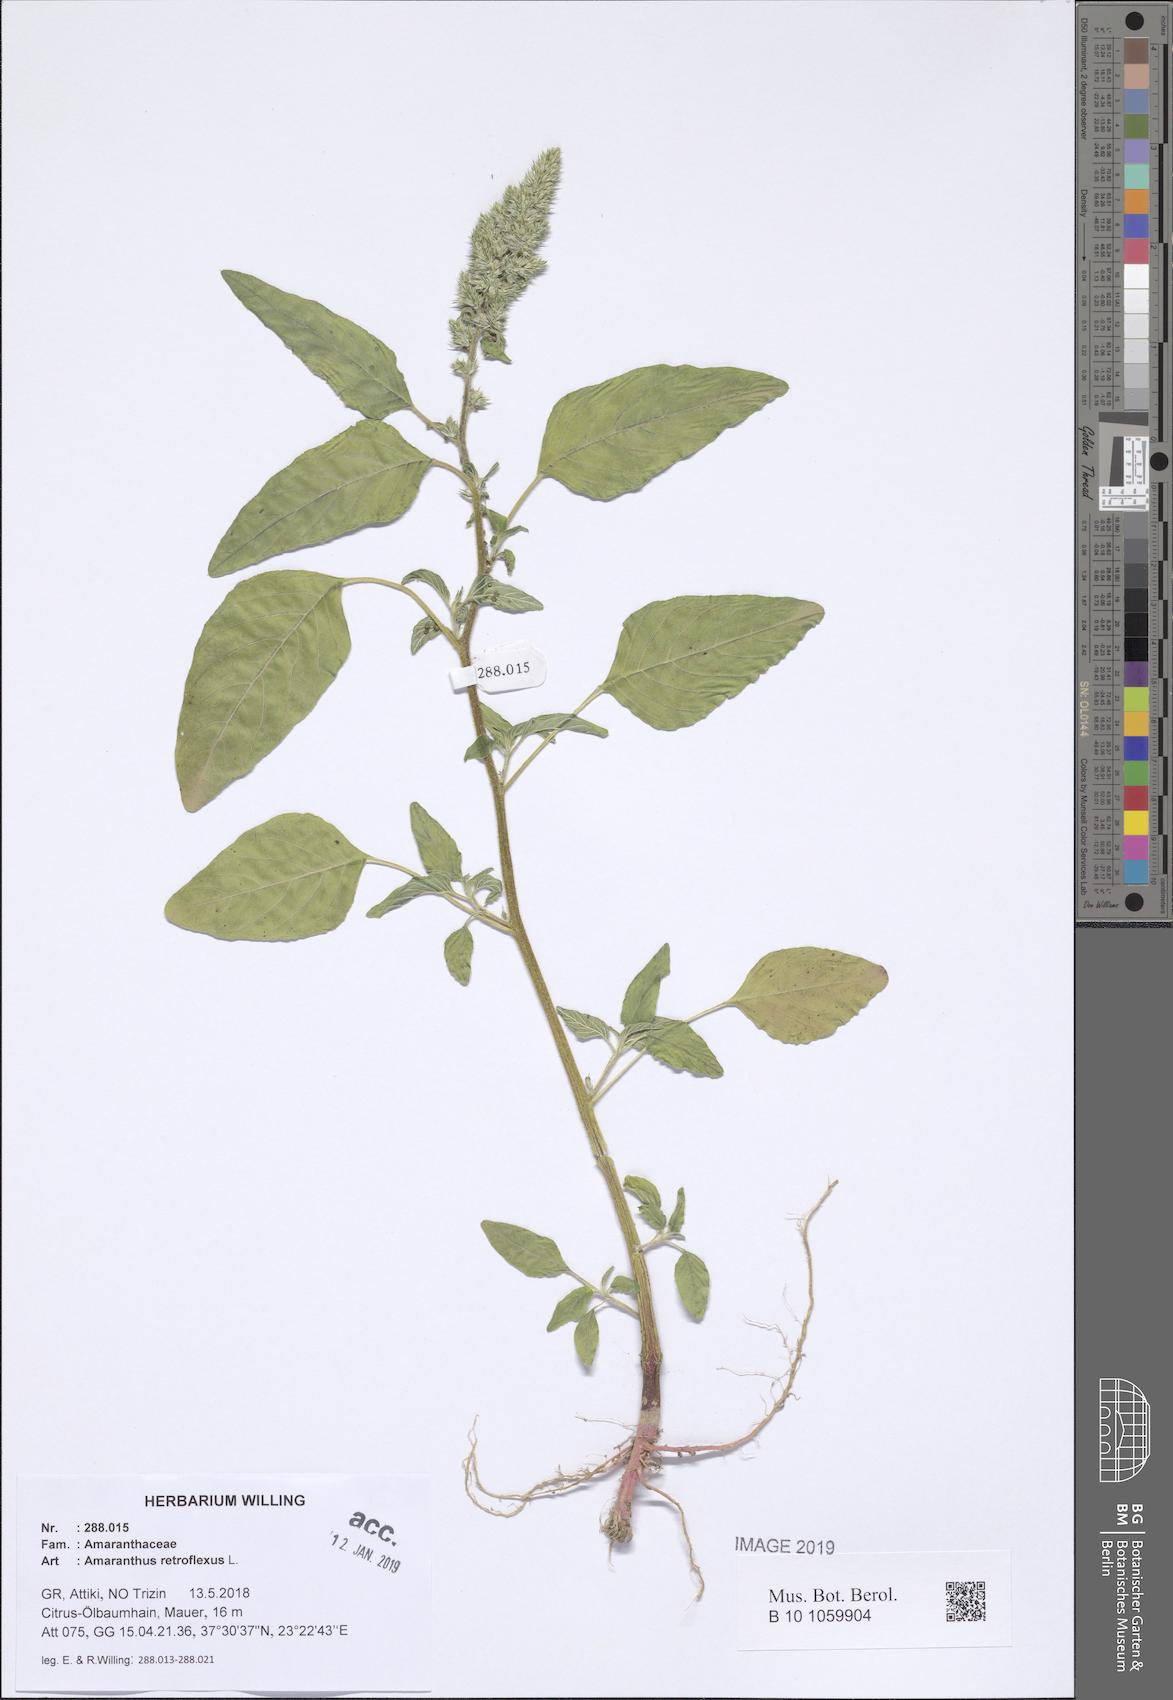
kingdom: Plantae
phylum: Tracheophyta
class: Magnoliopsida
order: Caryophyllales
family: Amaranthaceae
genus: Amaranthus
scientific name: Amaranthus retroflexus
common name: Redroot amaranth
